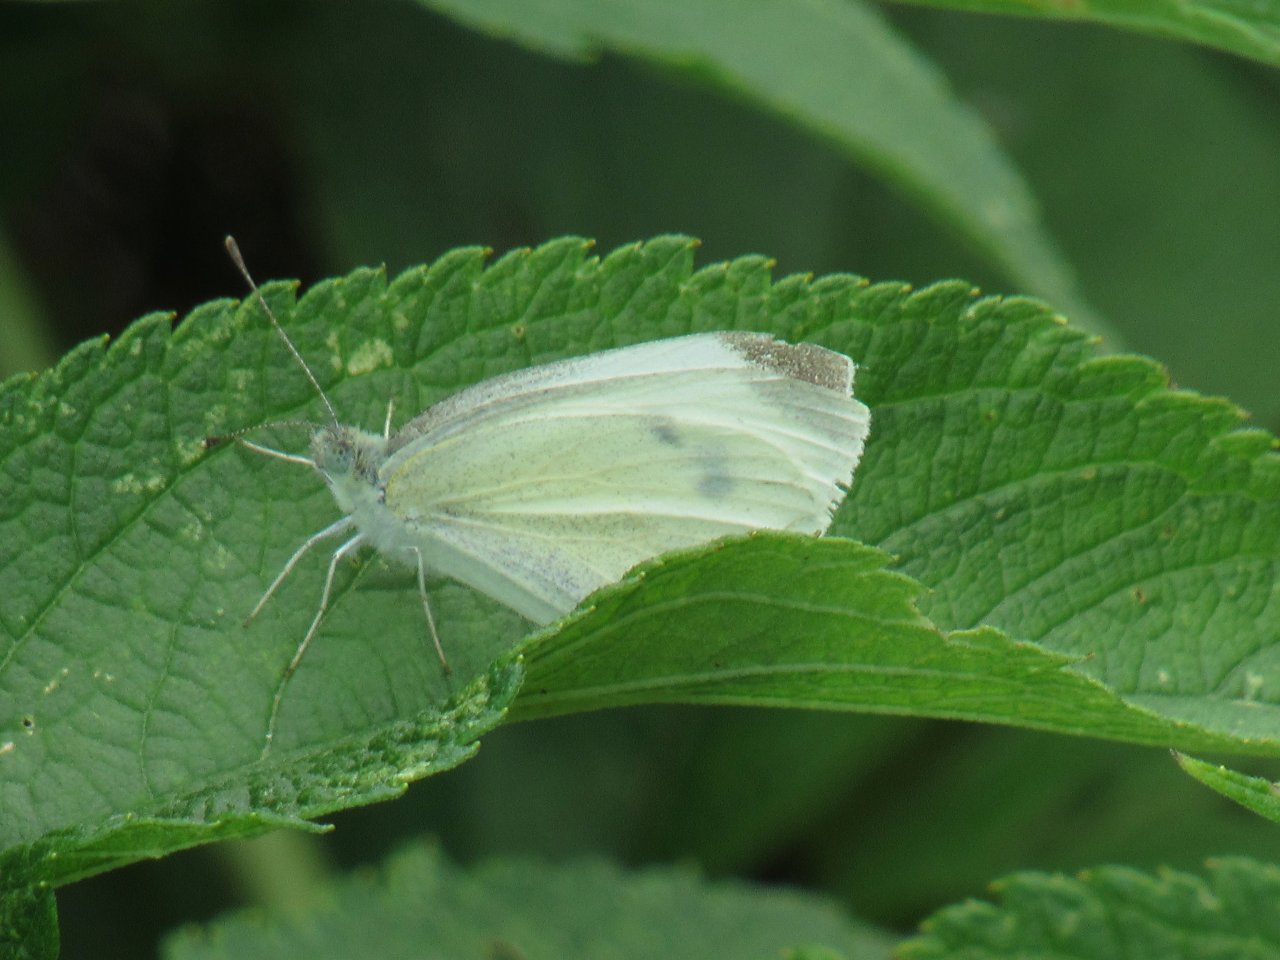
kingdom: Animalia
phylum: Arthropoda
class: Insecta
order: Lepidoptera
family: Pieridae
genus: Pieris
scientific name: Pieris rapae
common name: Cabbage White
